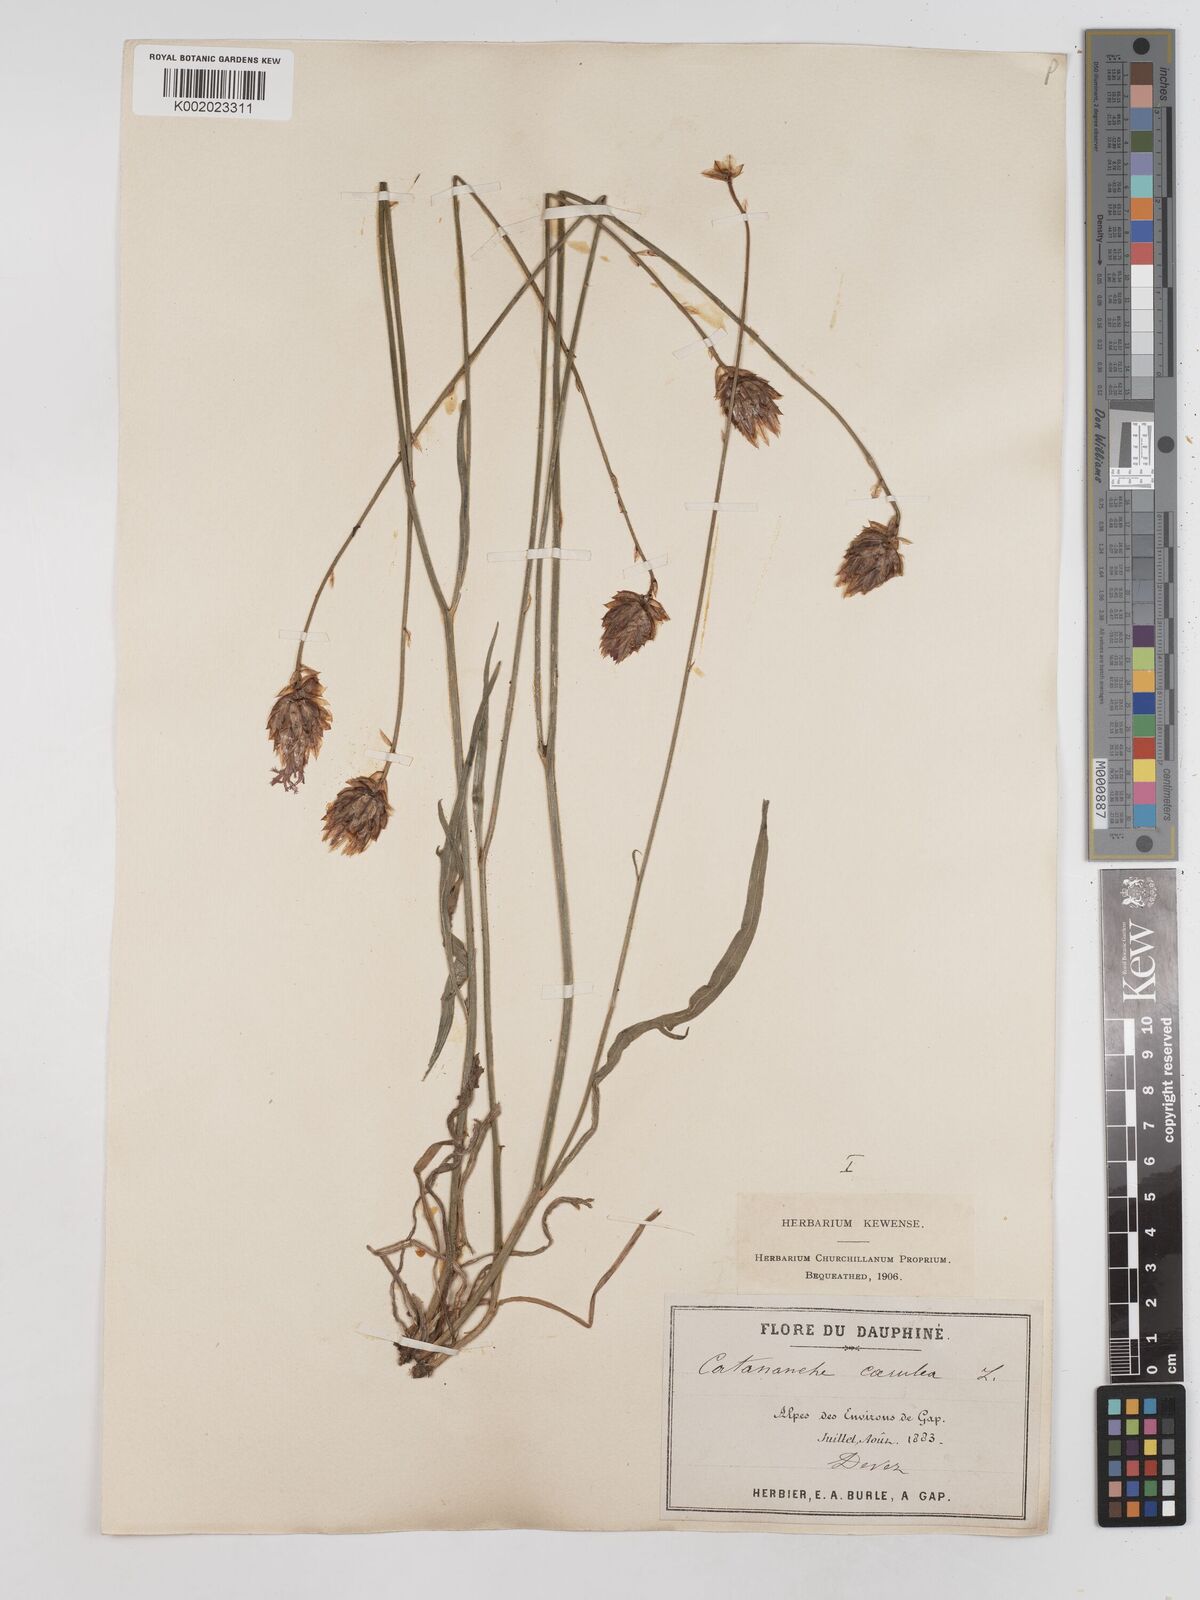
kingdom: Plantae
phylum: Tracheophyta
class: Magnoliopsida
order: Asterales
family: Asteraceae
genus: Catananche
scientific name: Catananche caerulea
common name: Blue cupidone
